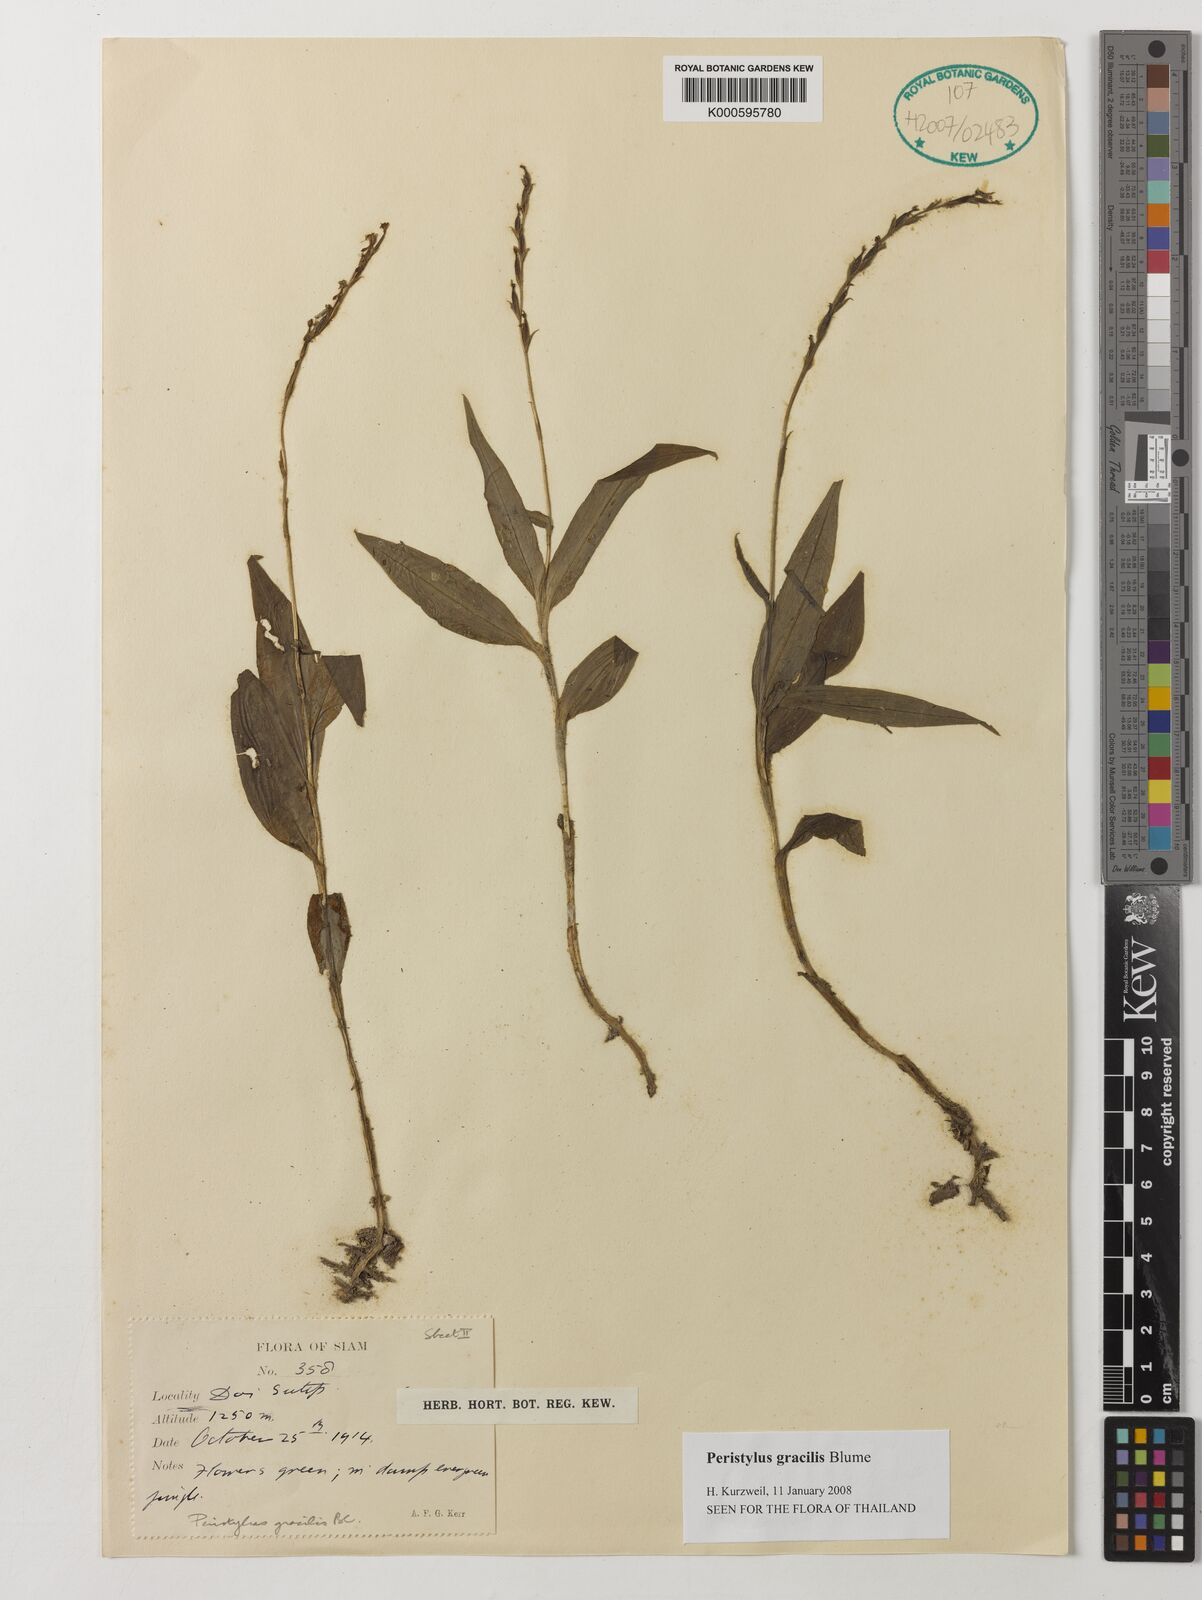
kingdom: Plantae
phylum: Tracheophyta
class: Liliopsida
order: Asparagales
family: Orchidaceae
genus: Peristylus
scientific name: Peristylus gracilis
